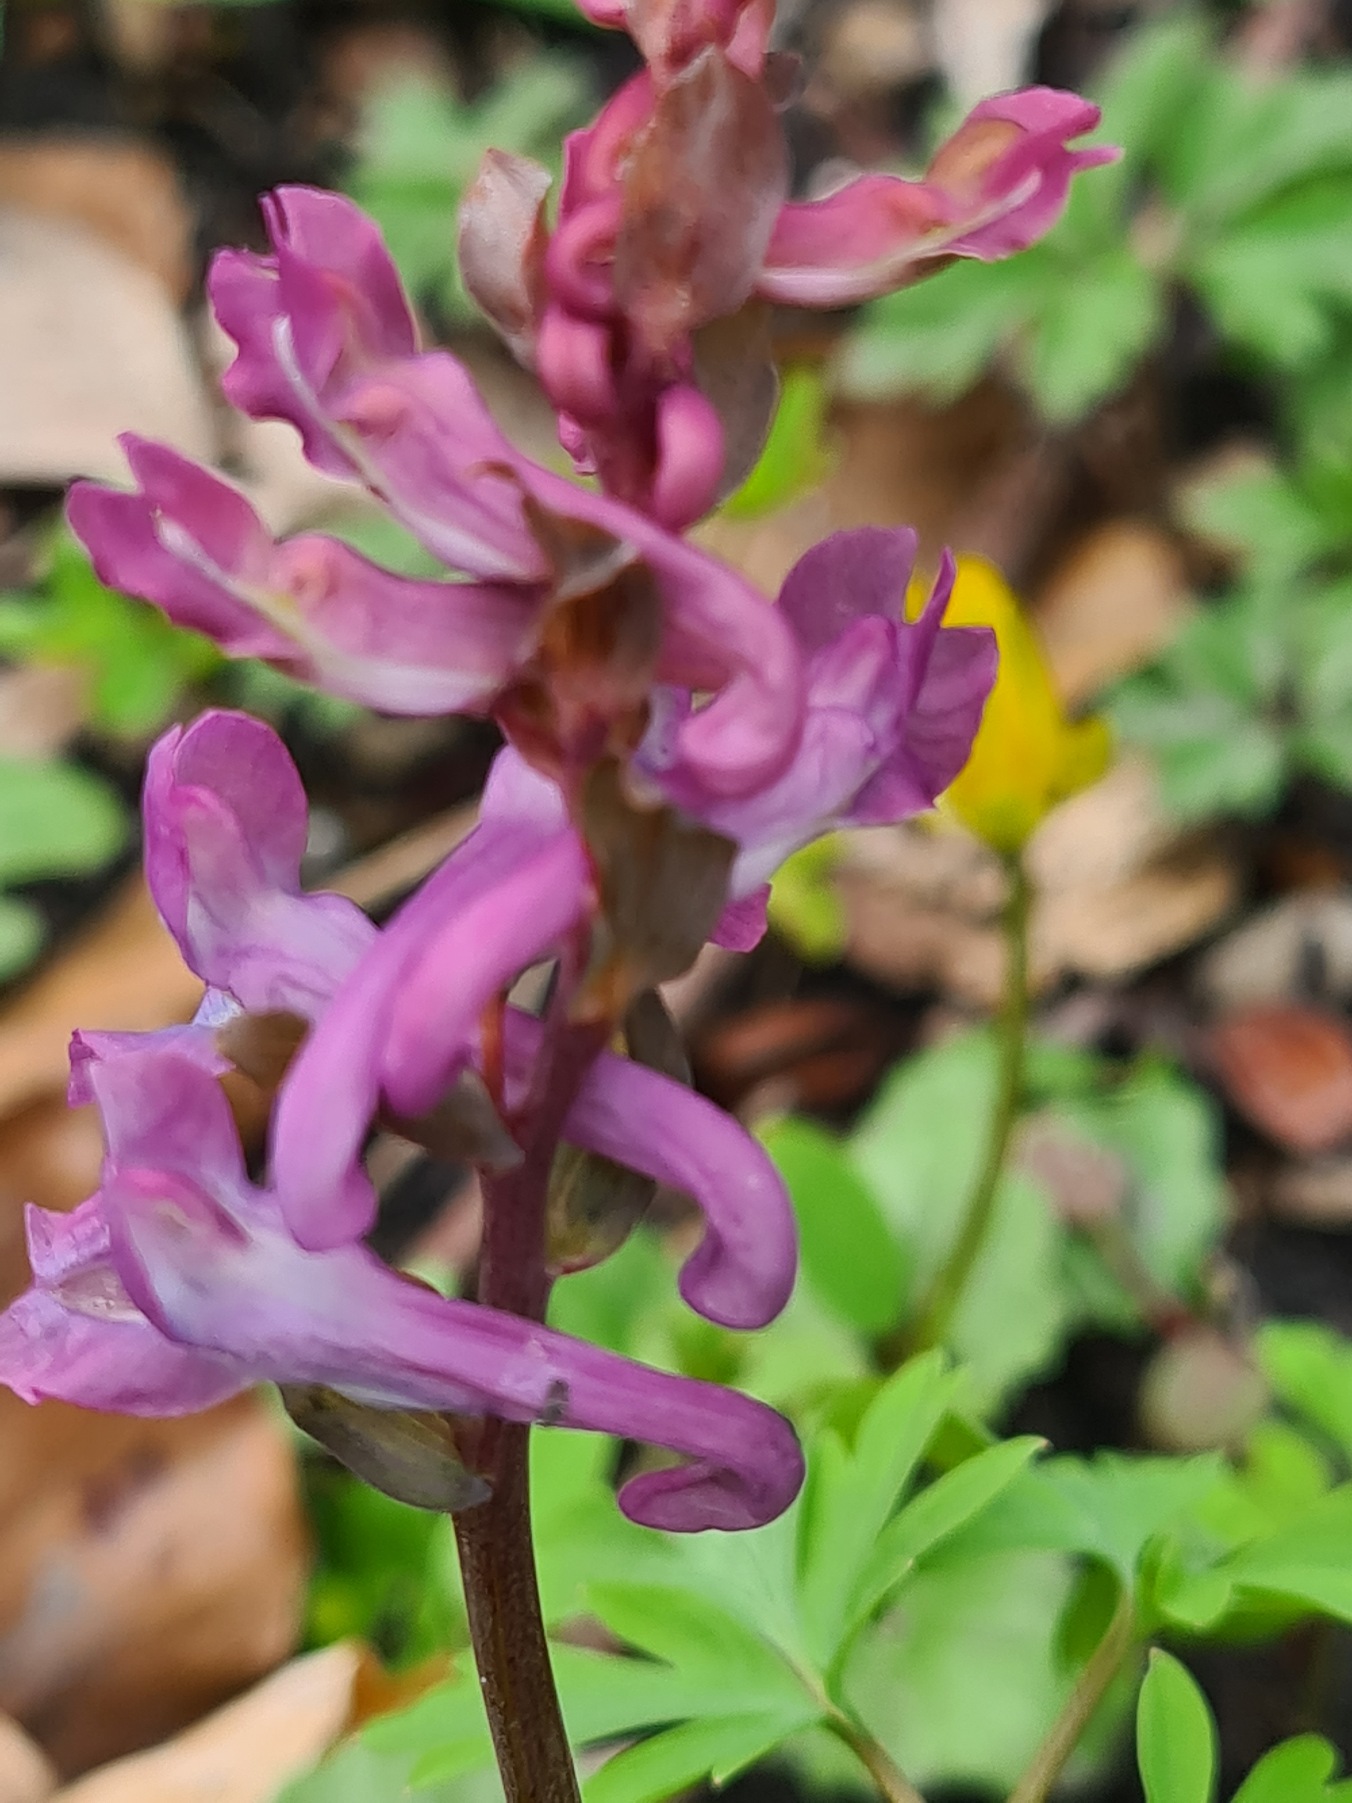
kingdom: Plantae
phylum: Tracheophyta
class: Magnoliopsida
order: Ranunculales
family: Papaveraceae
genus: Corydalis
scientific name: Corydalis cava
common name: Hulrodet lærkespore
